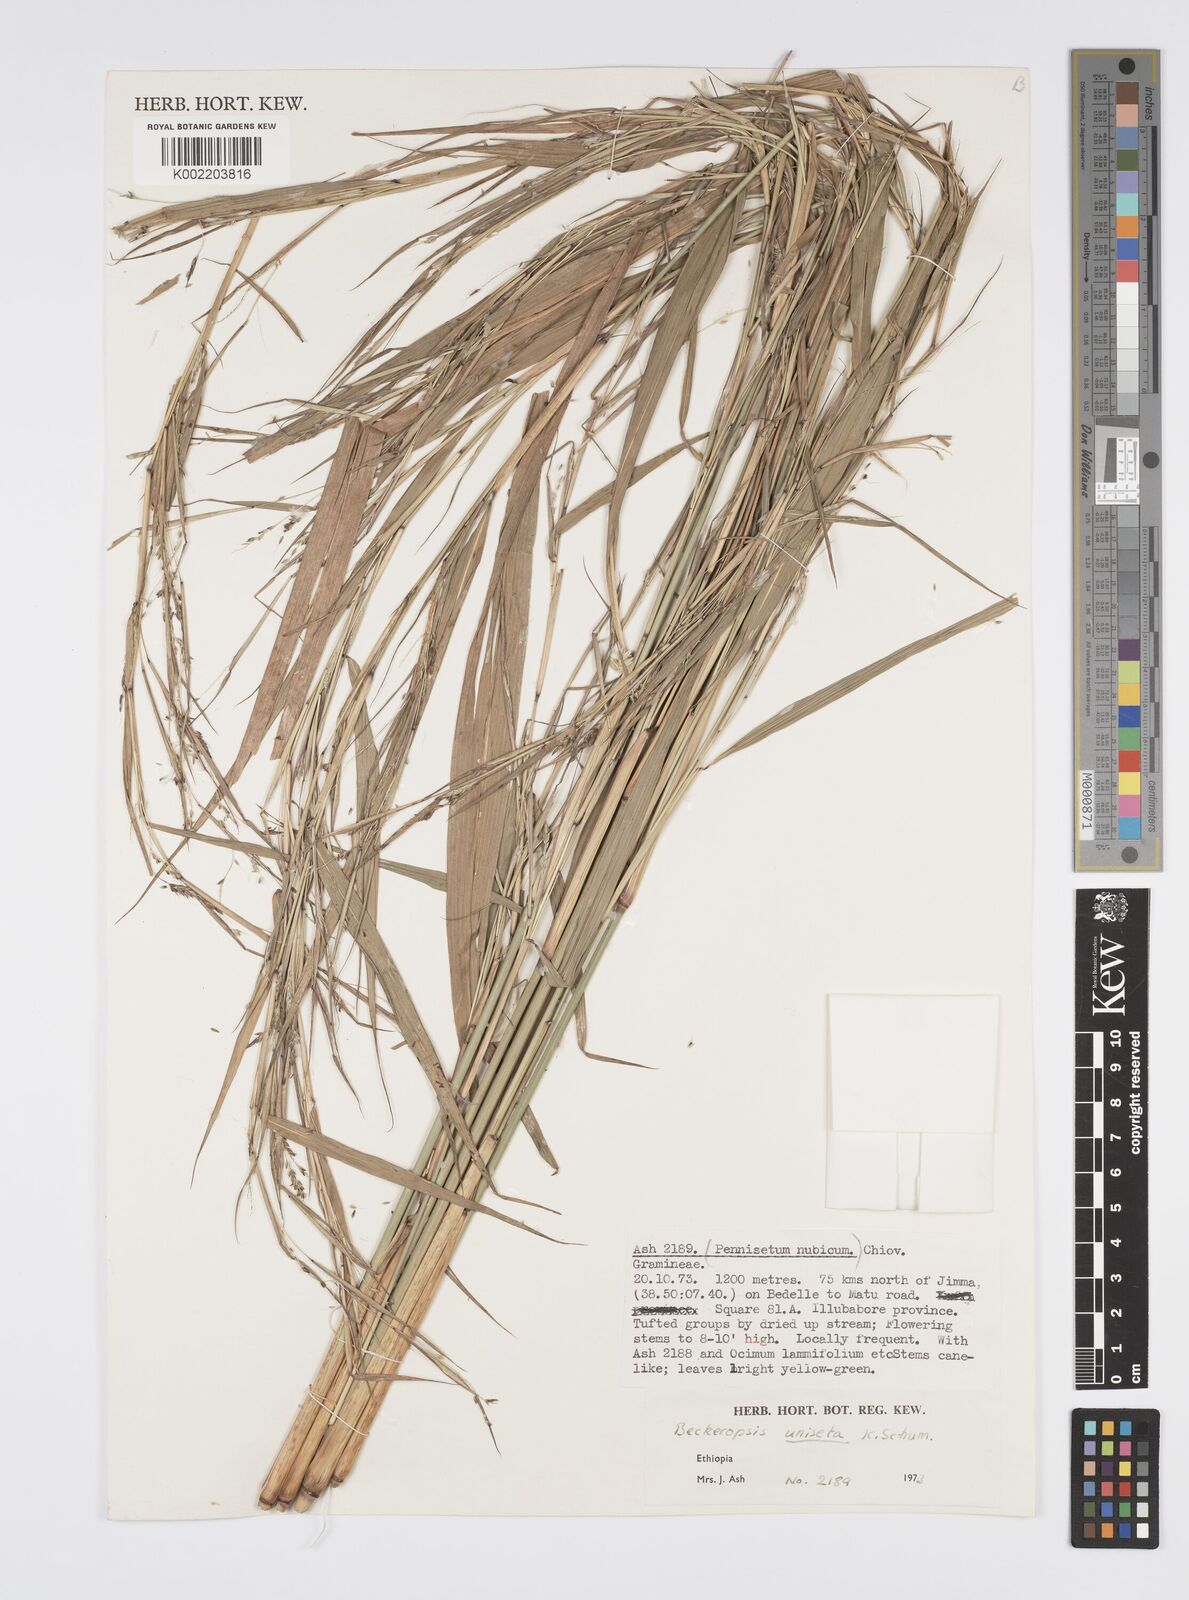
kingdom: Plantae
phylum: Tracheophyta
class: Liliopsida
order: Poales
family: Poaceae
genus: Cenchrus
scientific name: Cenchrus unisetus
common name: Natal grass
